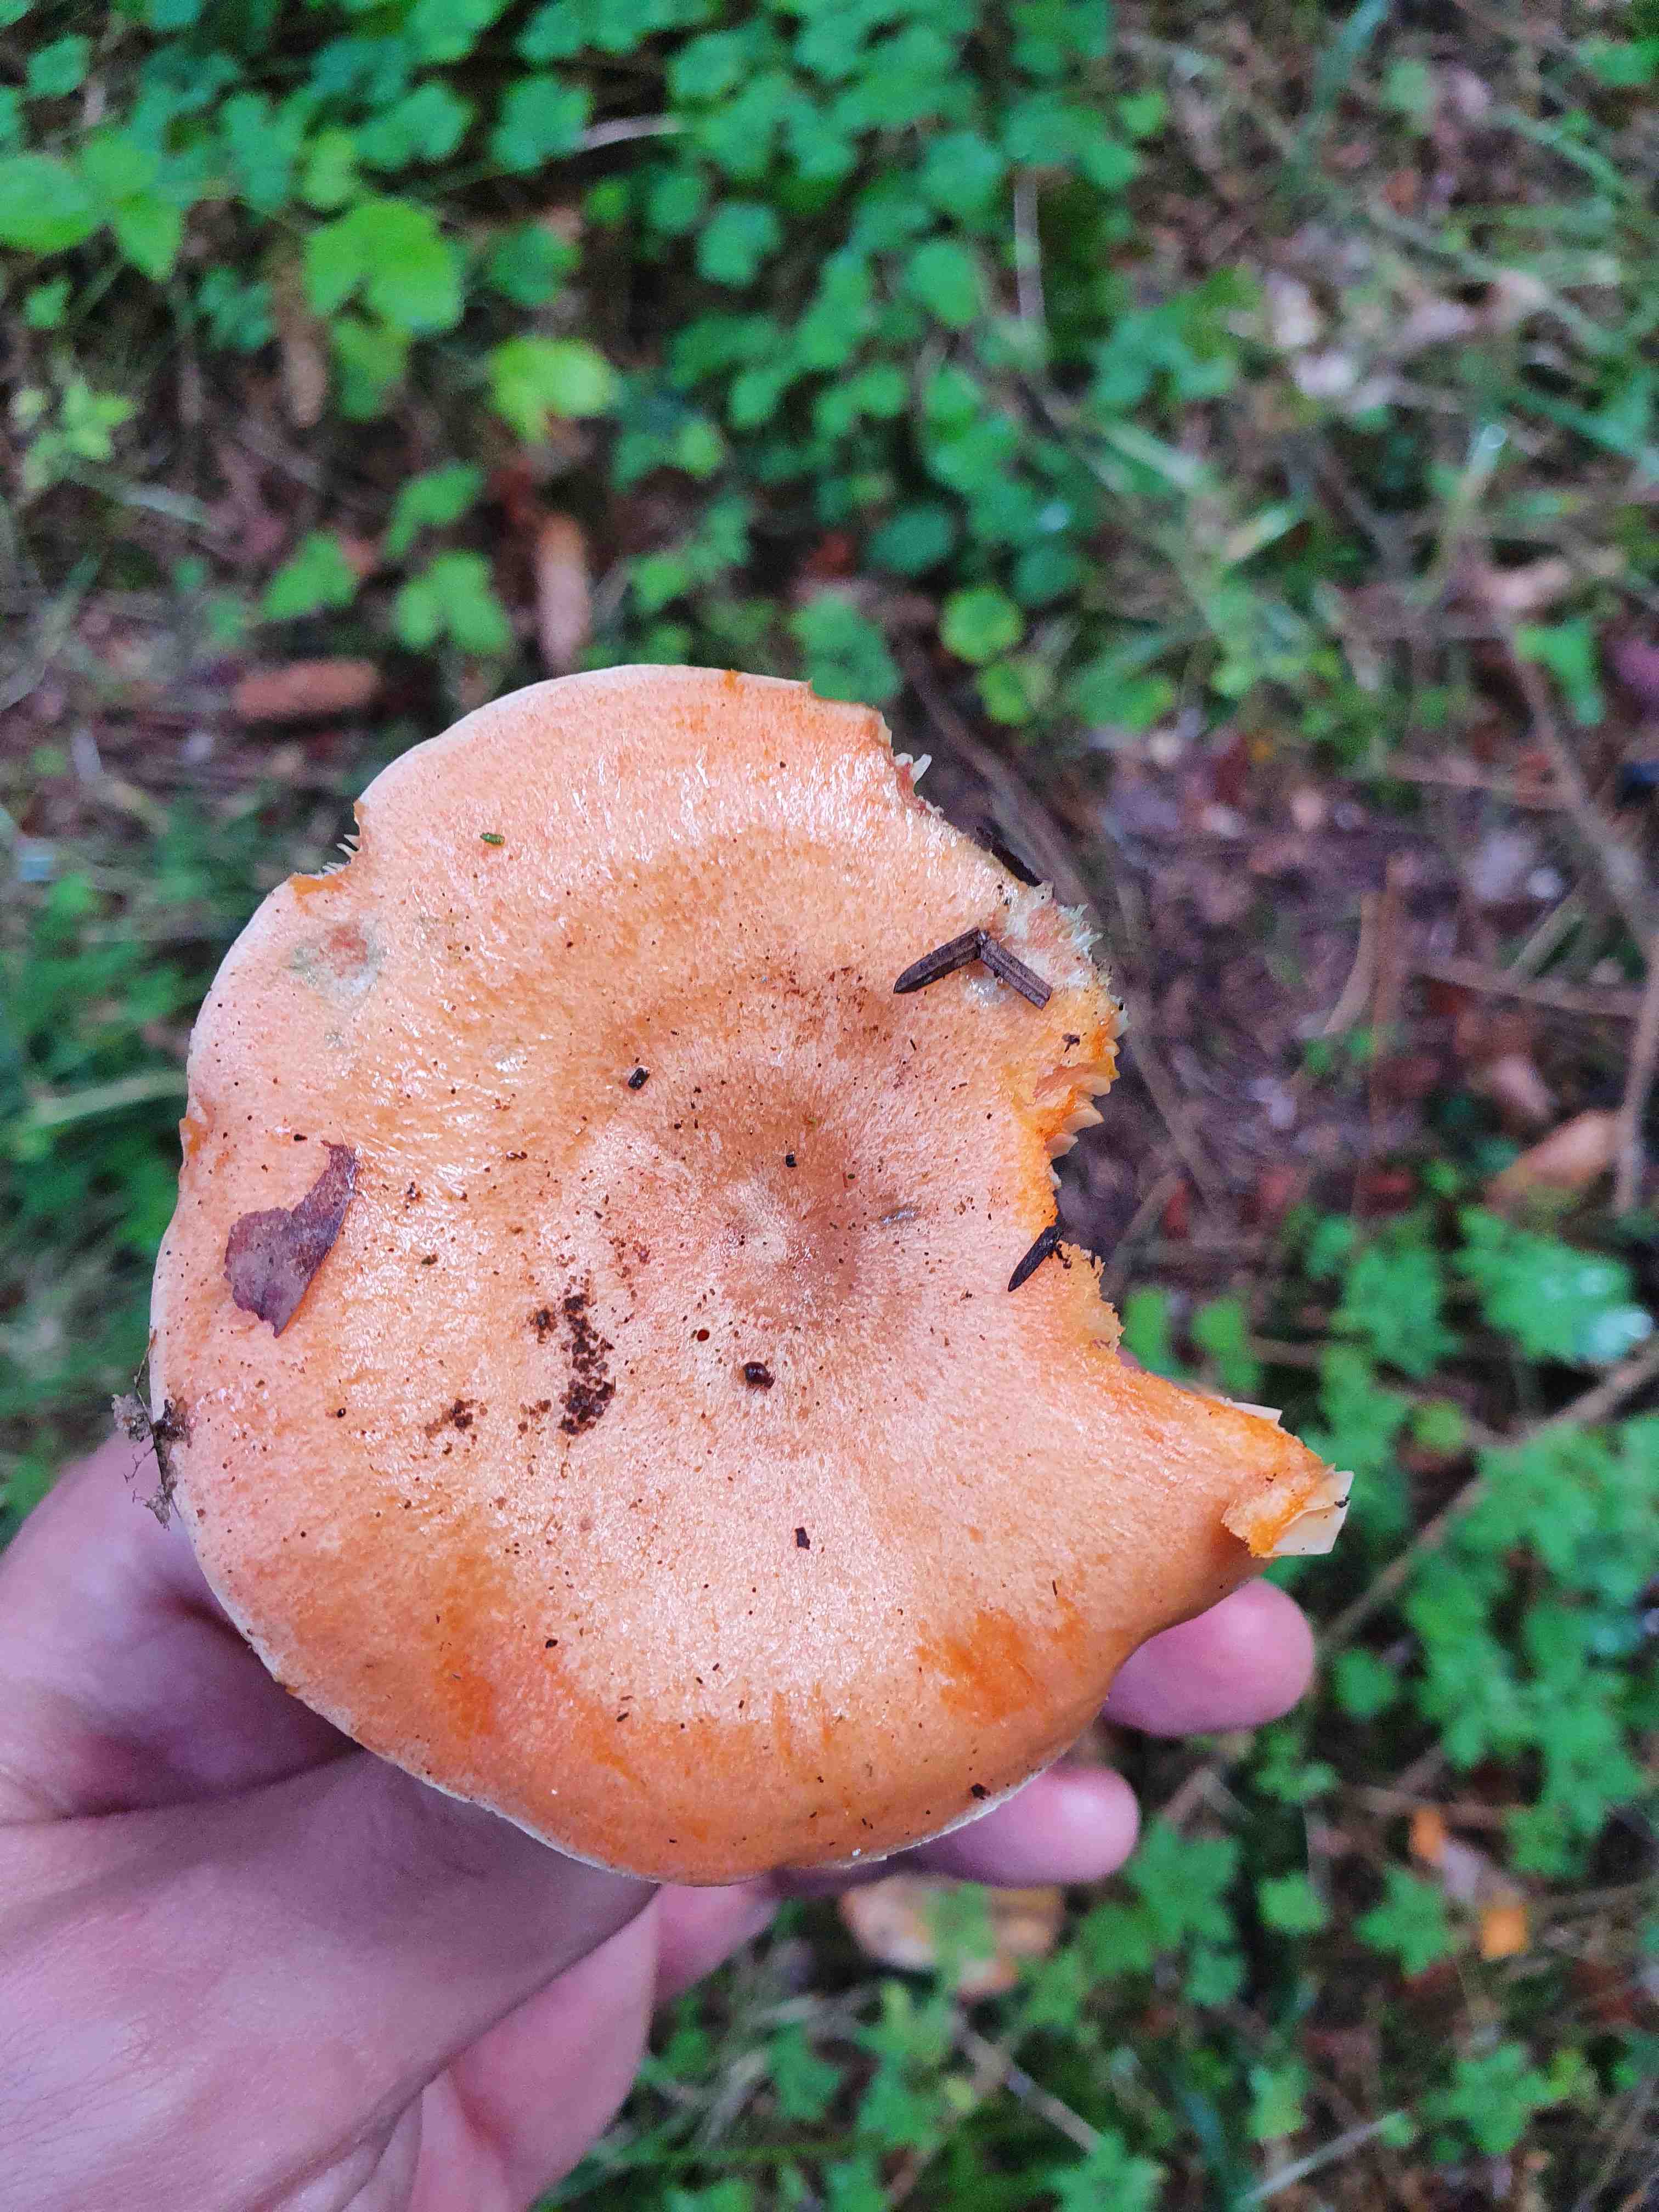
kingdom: Fungi
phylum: Basidiomycota
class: Agaricomycetes
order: Russulales
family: Russulaceae
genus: Lactarius
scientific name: Lactarius deterrimus
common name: gran-mælkehat
